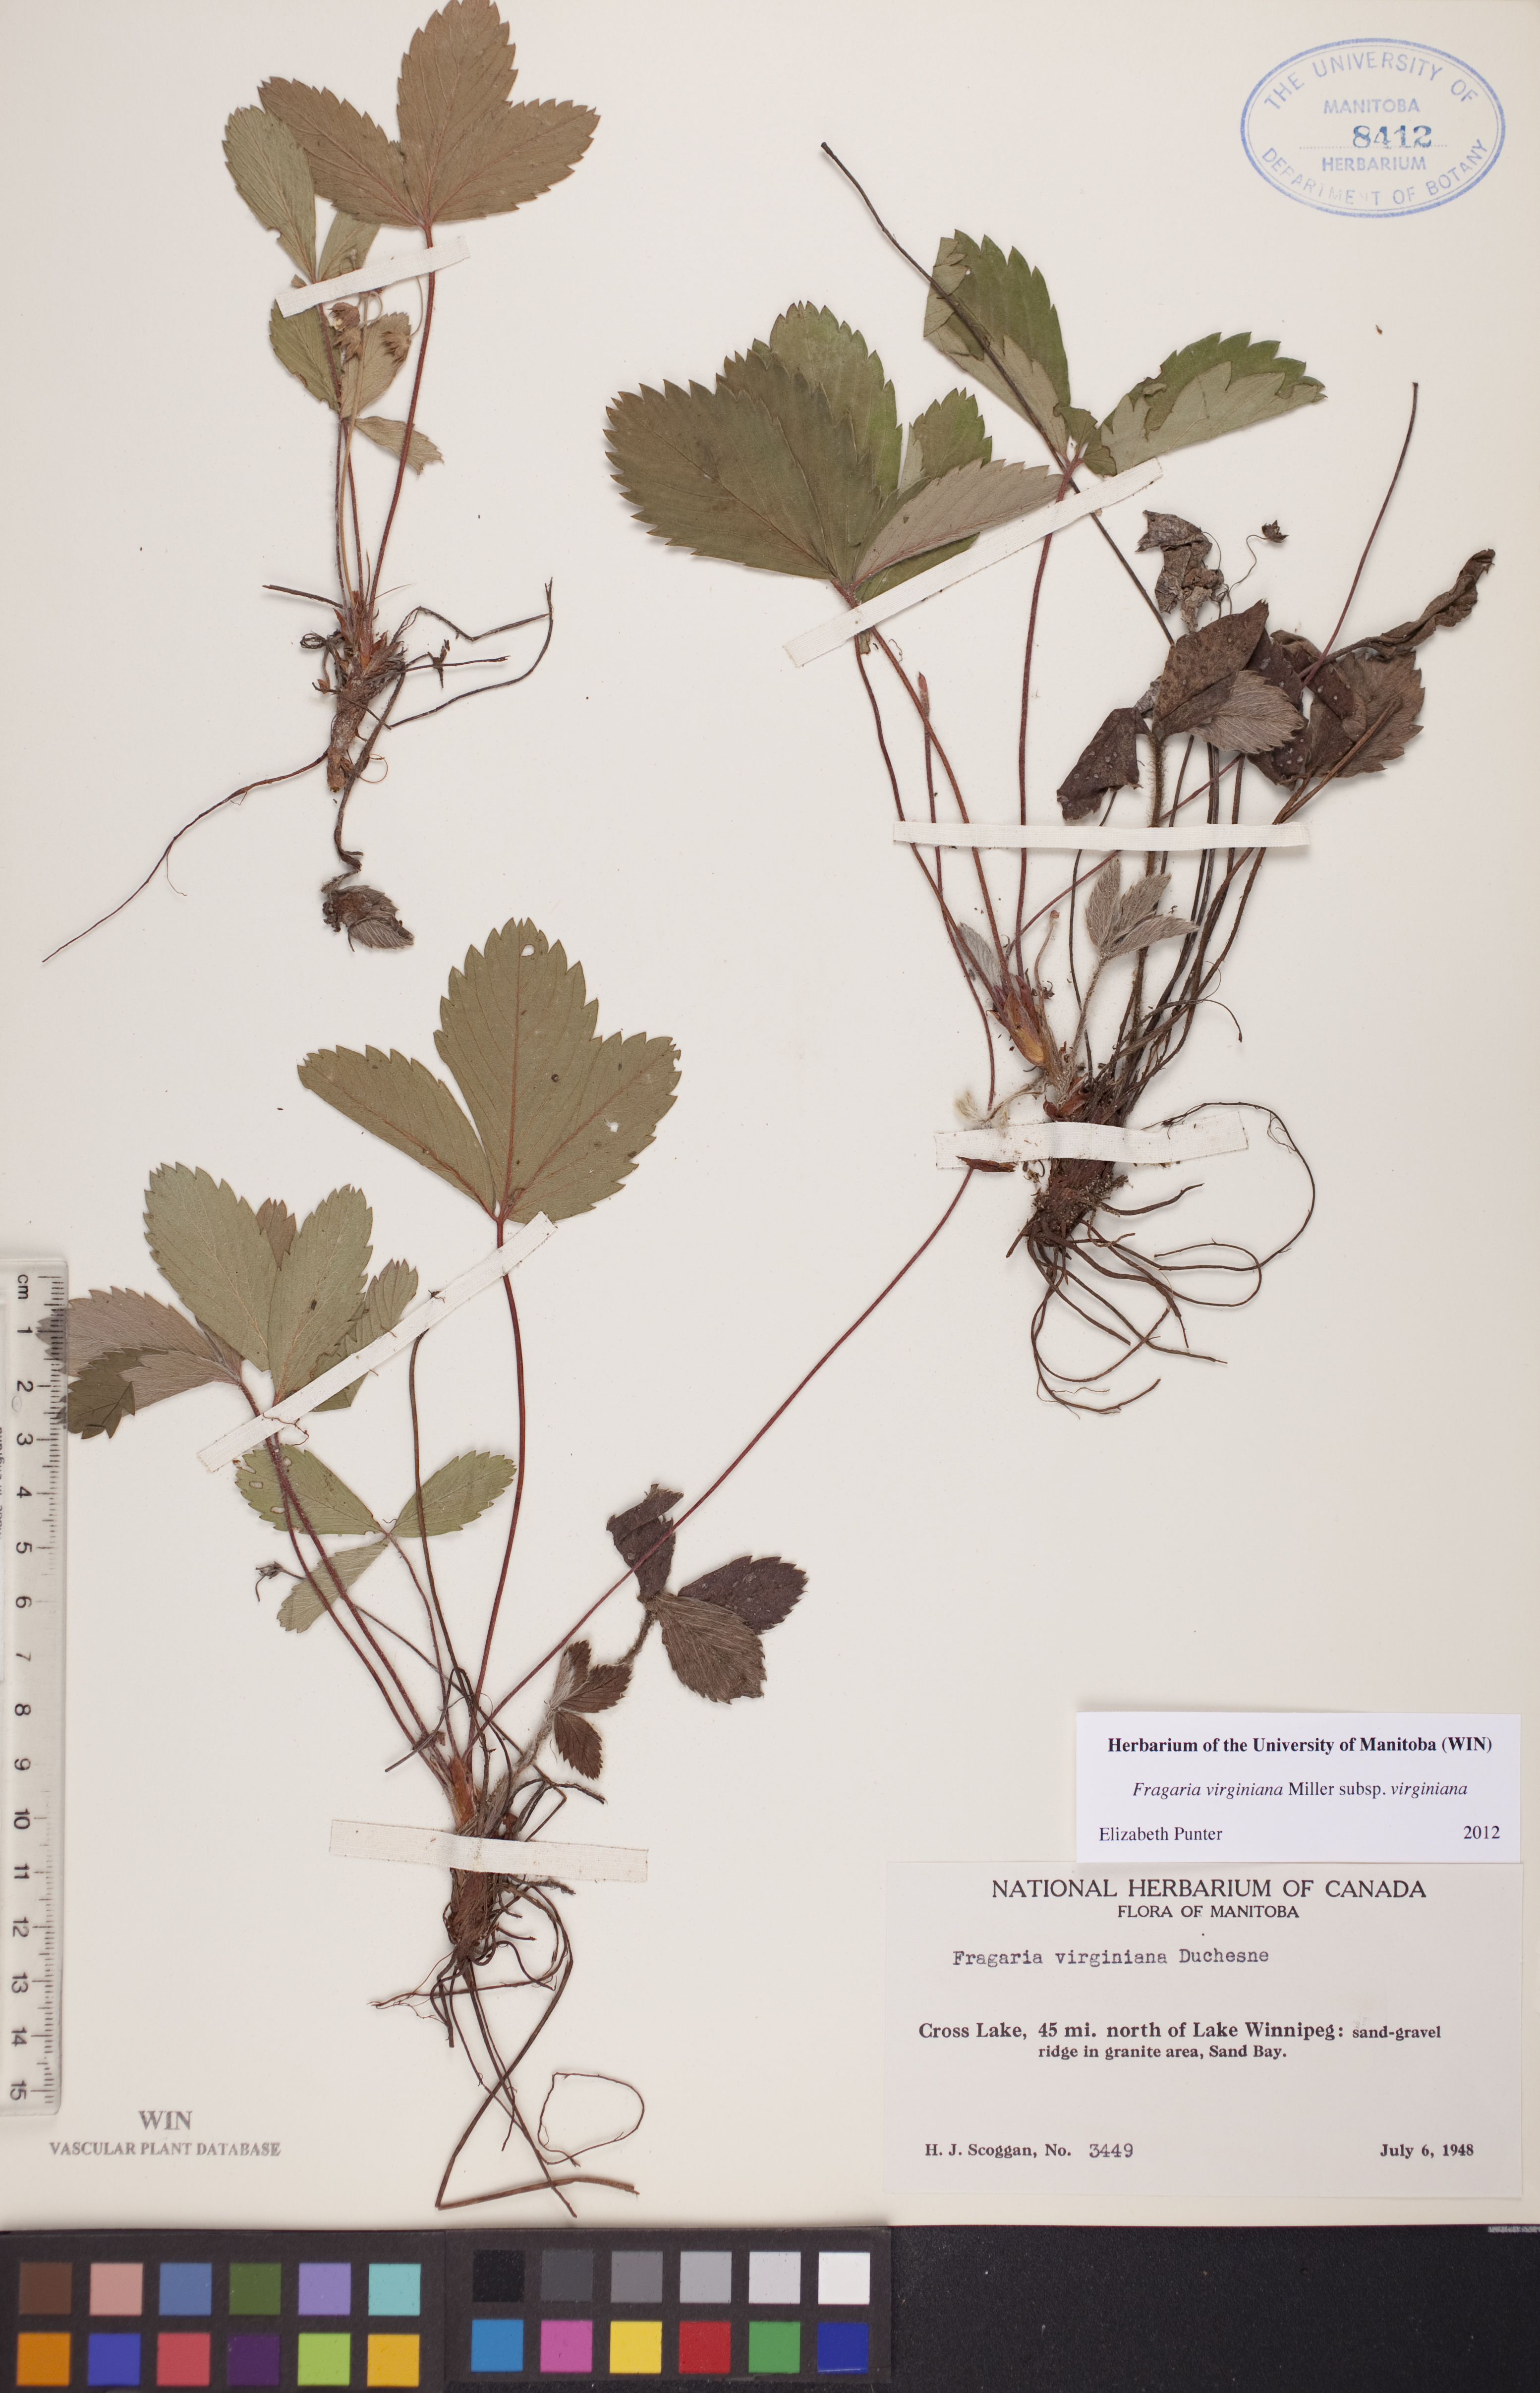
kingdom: Plantae
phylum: Tracheophyta
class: Magnoliopsida
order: Rosales
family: Rosaceae
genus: Fragaria
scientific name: Fragaria virginiana
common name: Thickleaved wild strawberry
